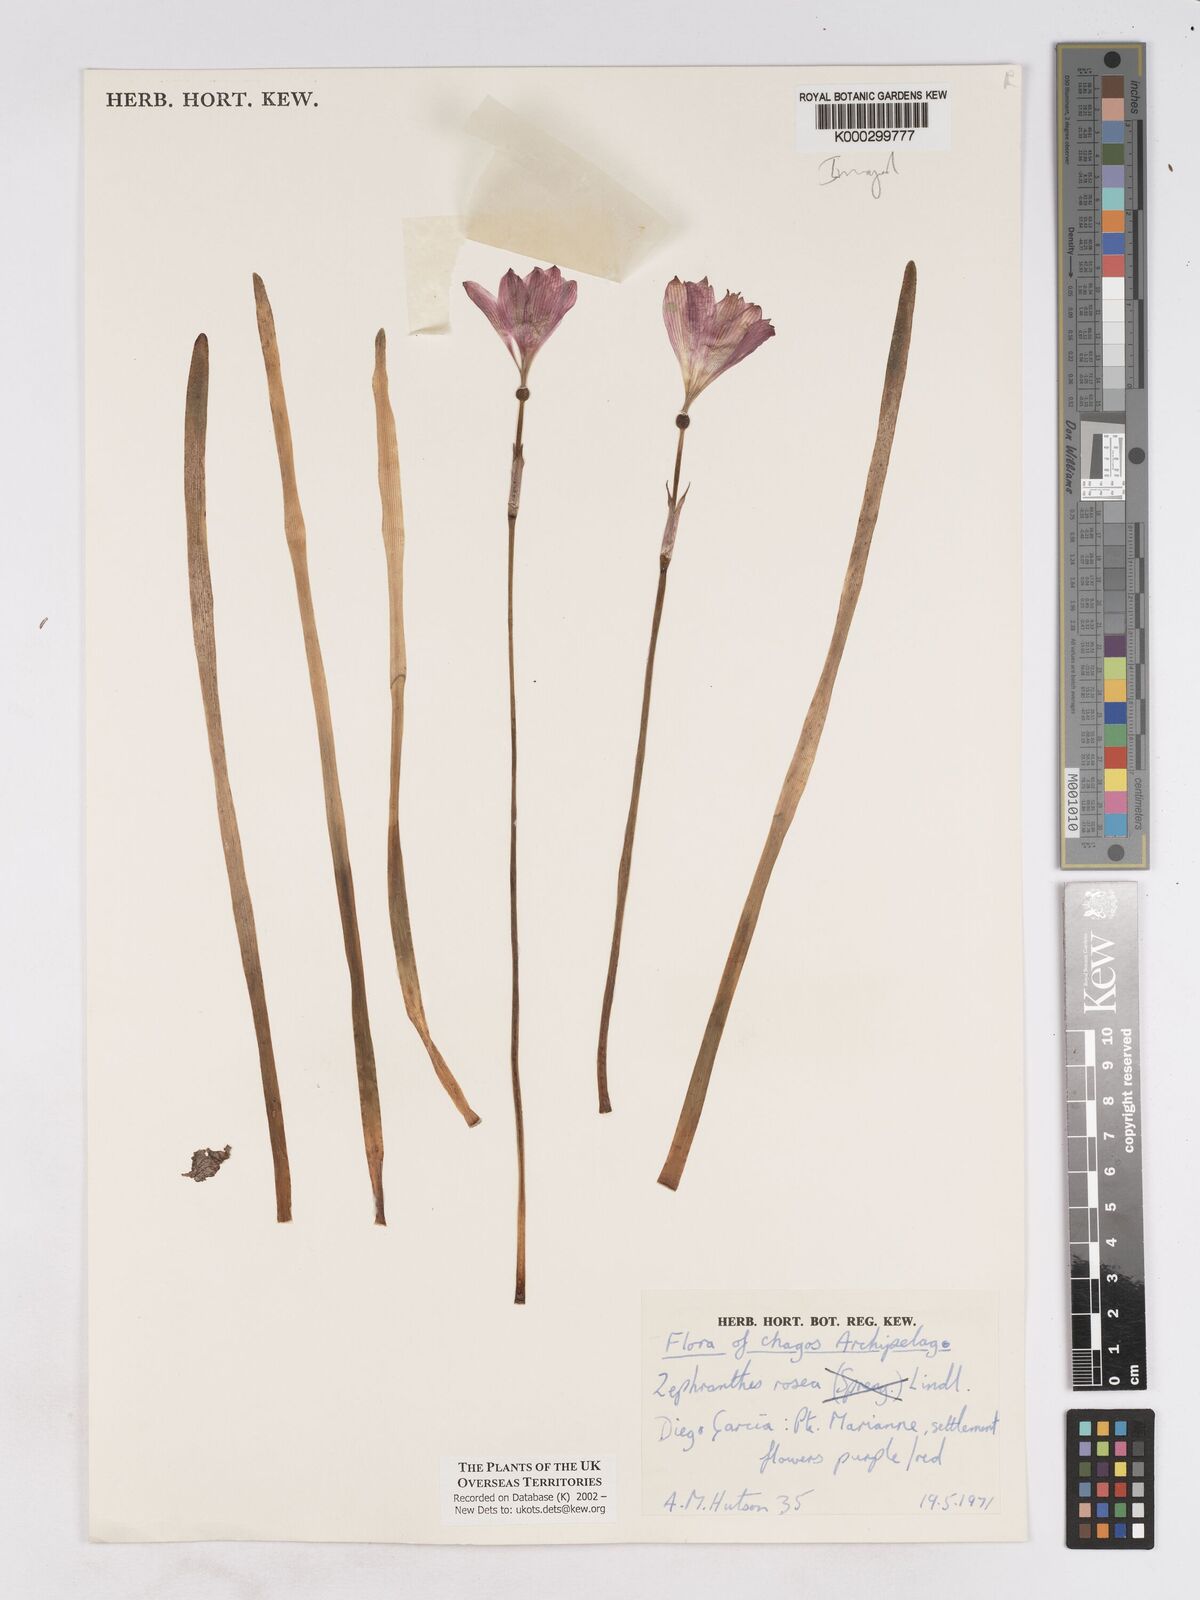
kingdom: Plantae
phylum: Tracheophyta
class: Liliopsida
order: Asparagales
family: Amaryllidaceae
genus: Zephyranthes
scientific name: Zephyranthes rosea
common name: Cuban zephyrlily
